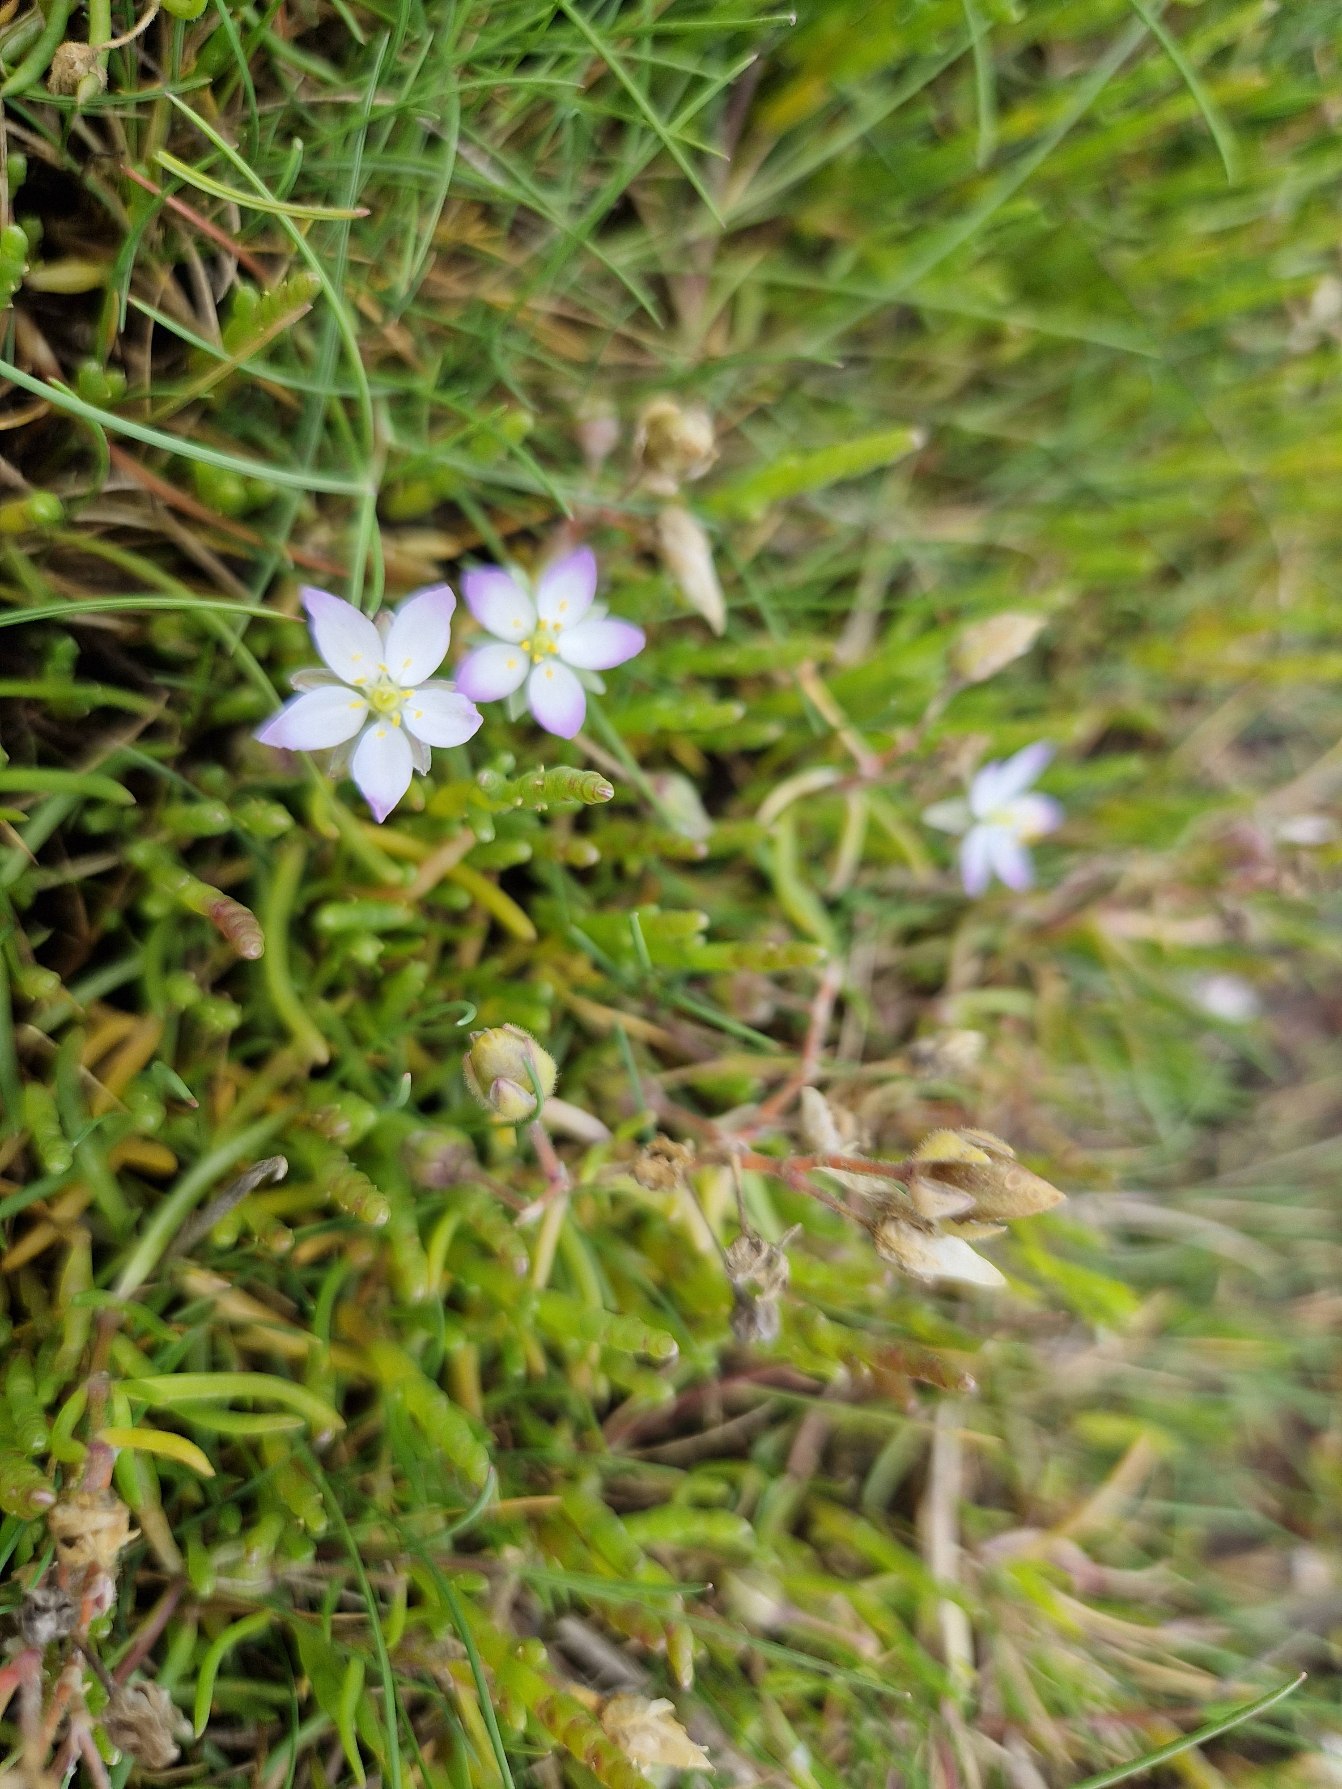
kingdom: Plantae
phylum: Tracheophyta
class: Magnoliopsida
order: Caryophyllales
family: Caryophyllaceae
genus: Spergularia
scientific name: Spergularia media
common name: Vingefrøet hindeknæ
